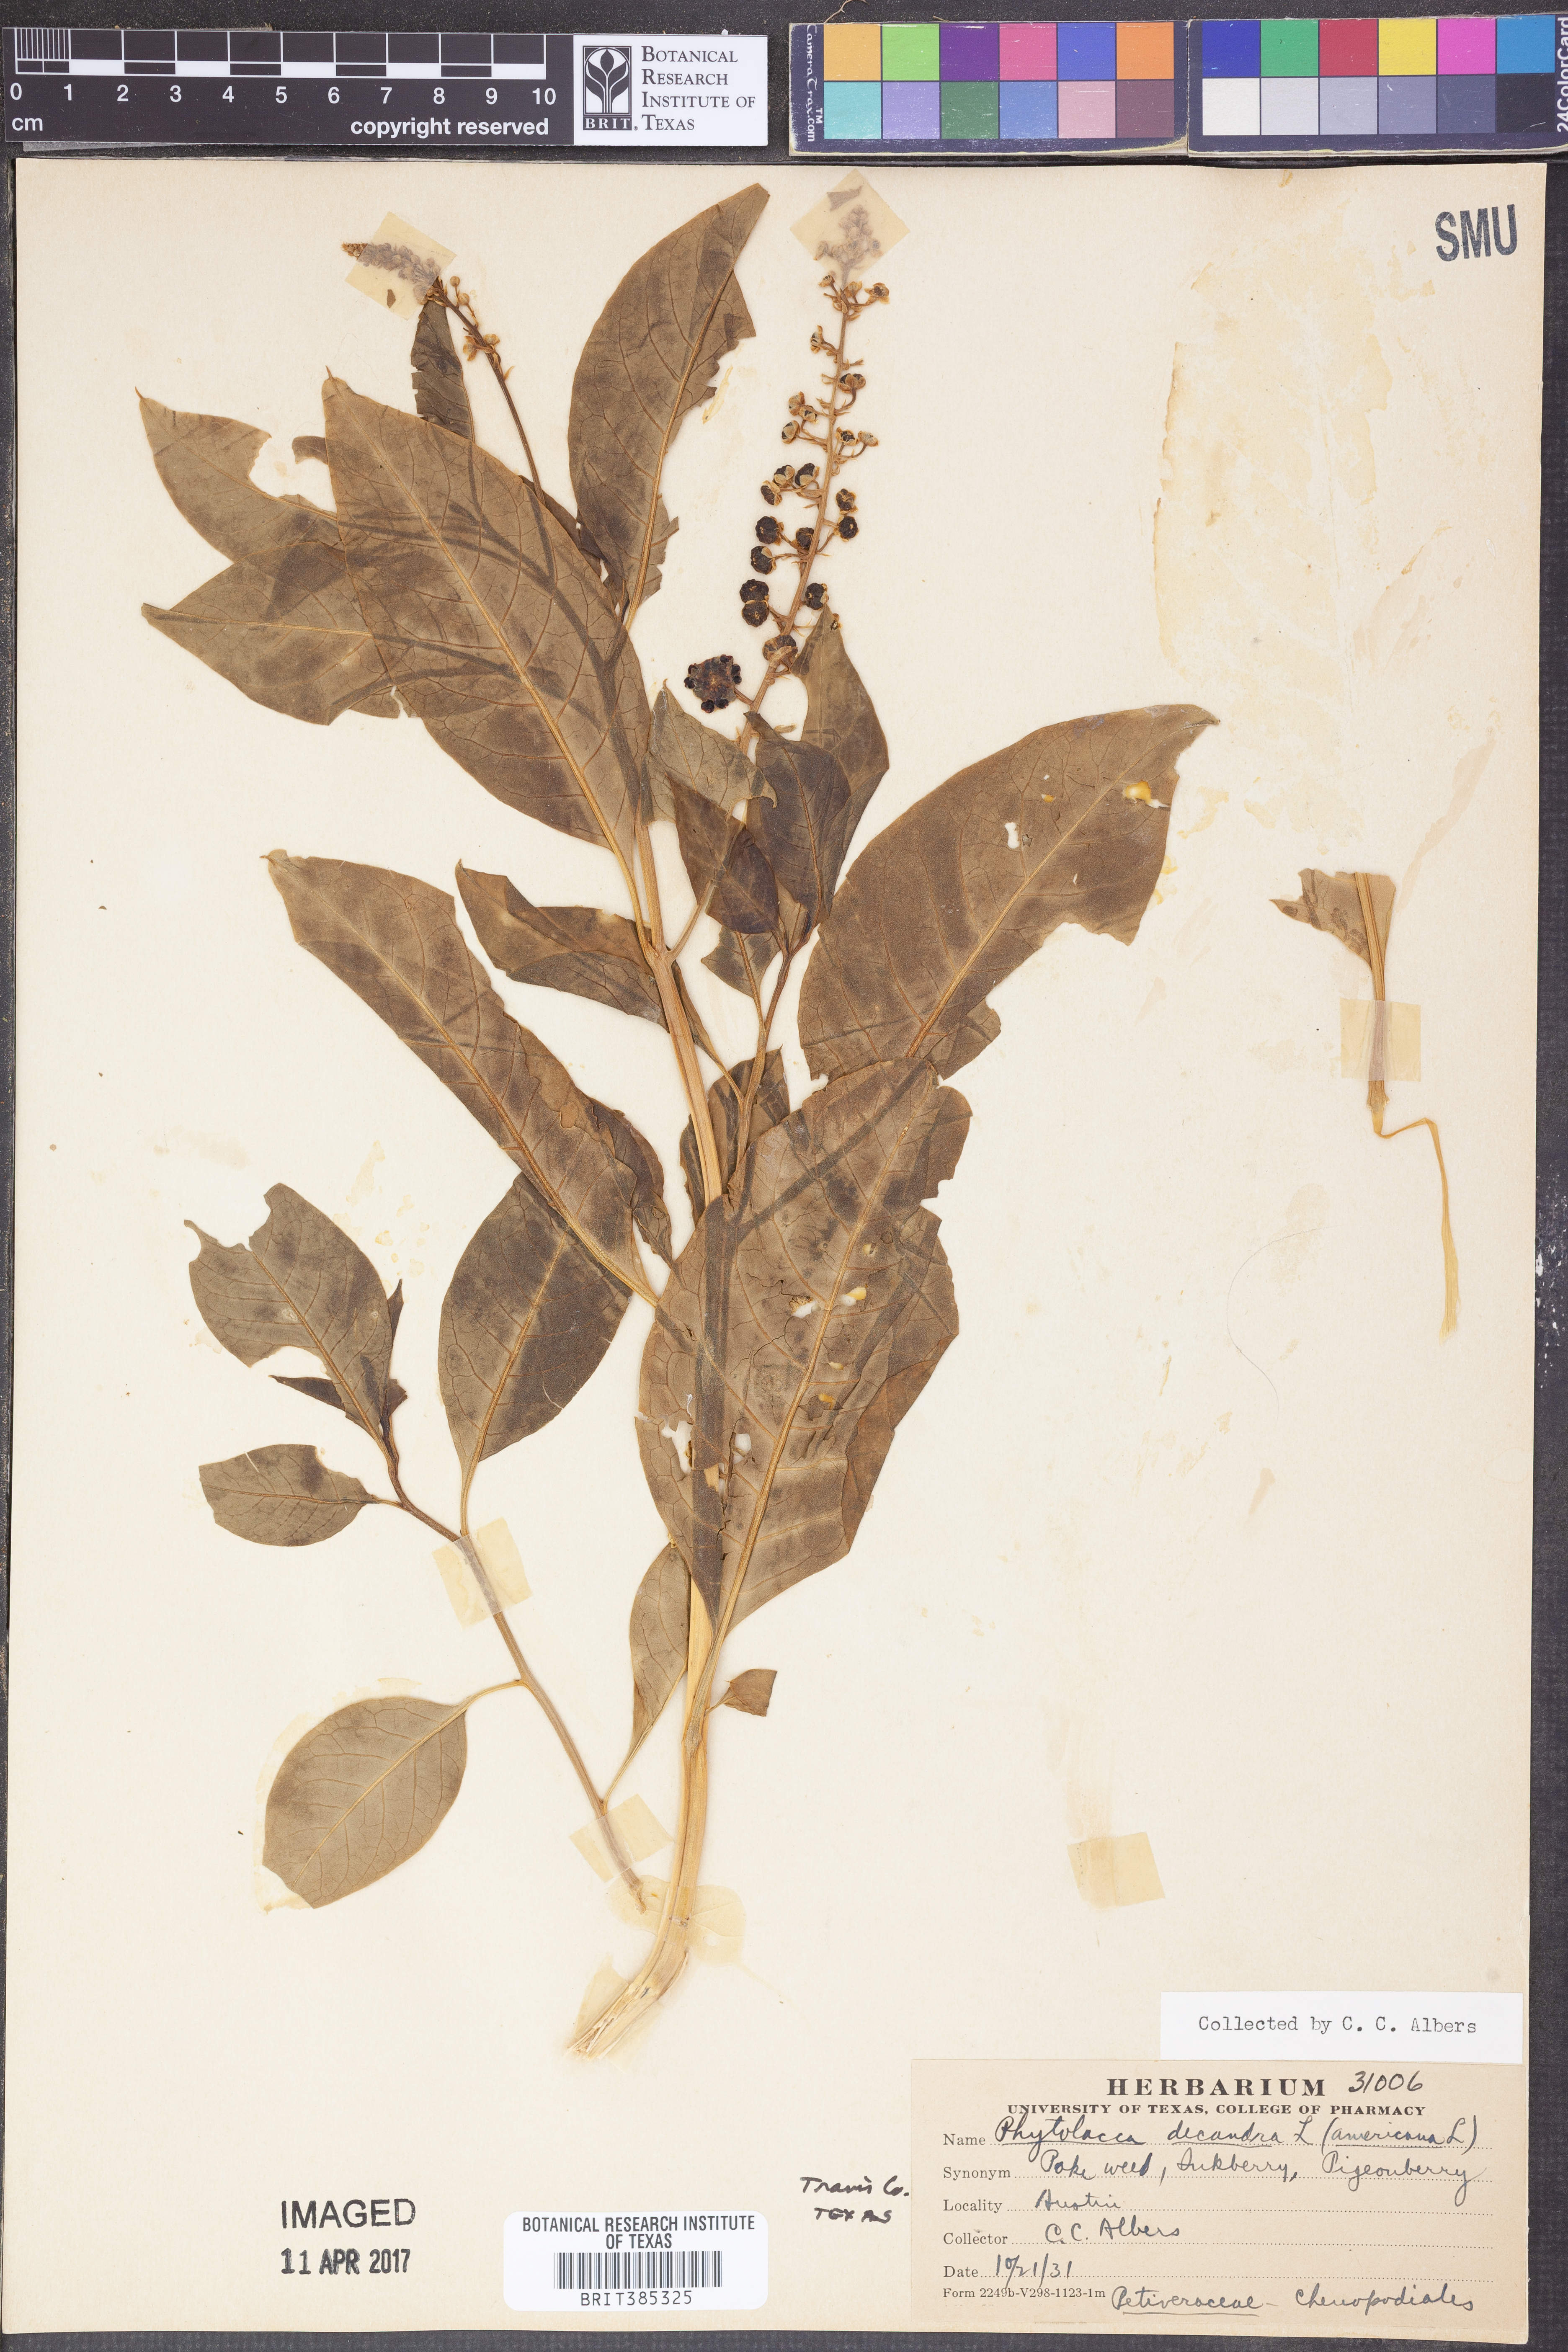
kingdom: Plantae
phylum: Tracheophyta
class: Magnoliopsida
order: Caryophyllales
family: Phytolaccaceae
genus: Phytolacca
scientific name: Phytolacca americana
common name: American pokeweed
